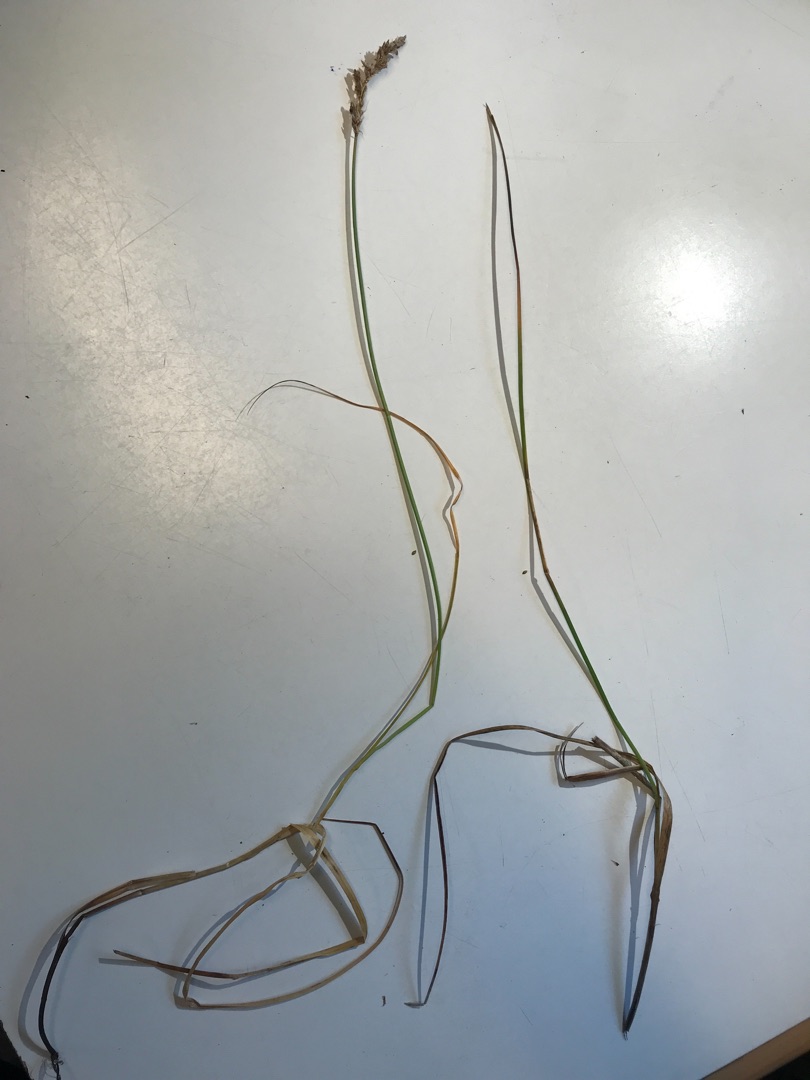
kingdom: Plantae
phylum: Tracheophyta
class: Liliopsida
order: Poales
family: Cyperaceae
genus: Carex
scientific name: Carex
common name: Starslægten
